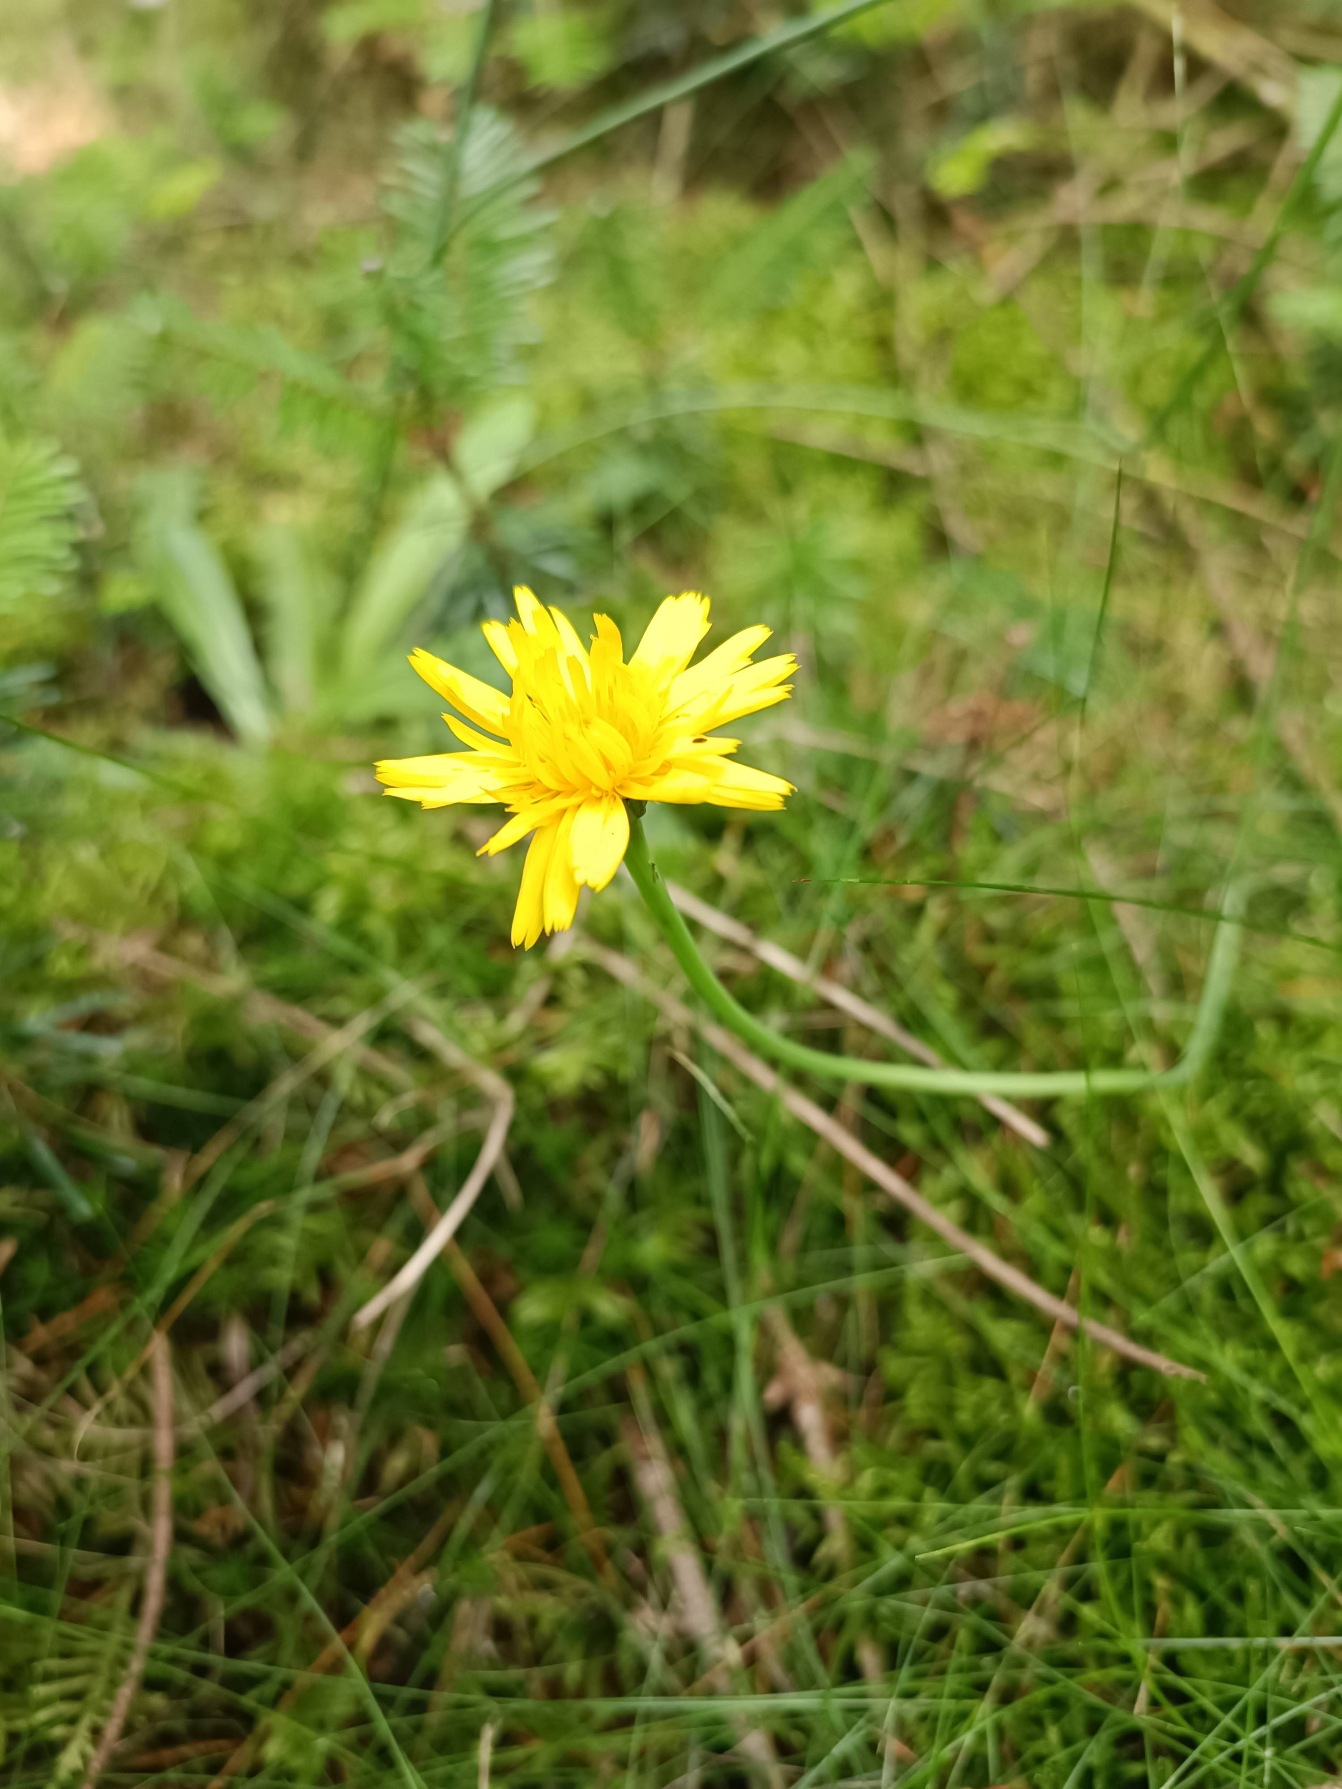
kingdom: Plantae
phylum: Tracheophyta
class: Magnoliopsida
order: Asterales
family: Asteraceae
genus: Hypochaeris
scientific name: Hypochaeris radicata
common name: Almindelig kongepen
